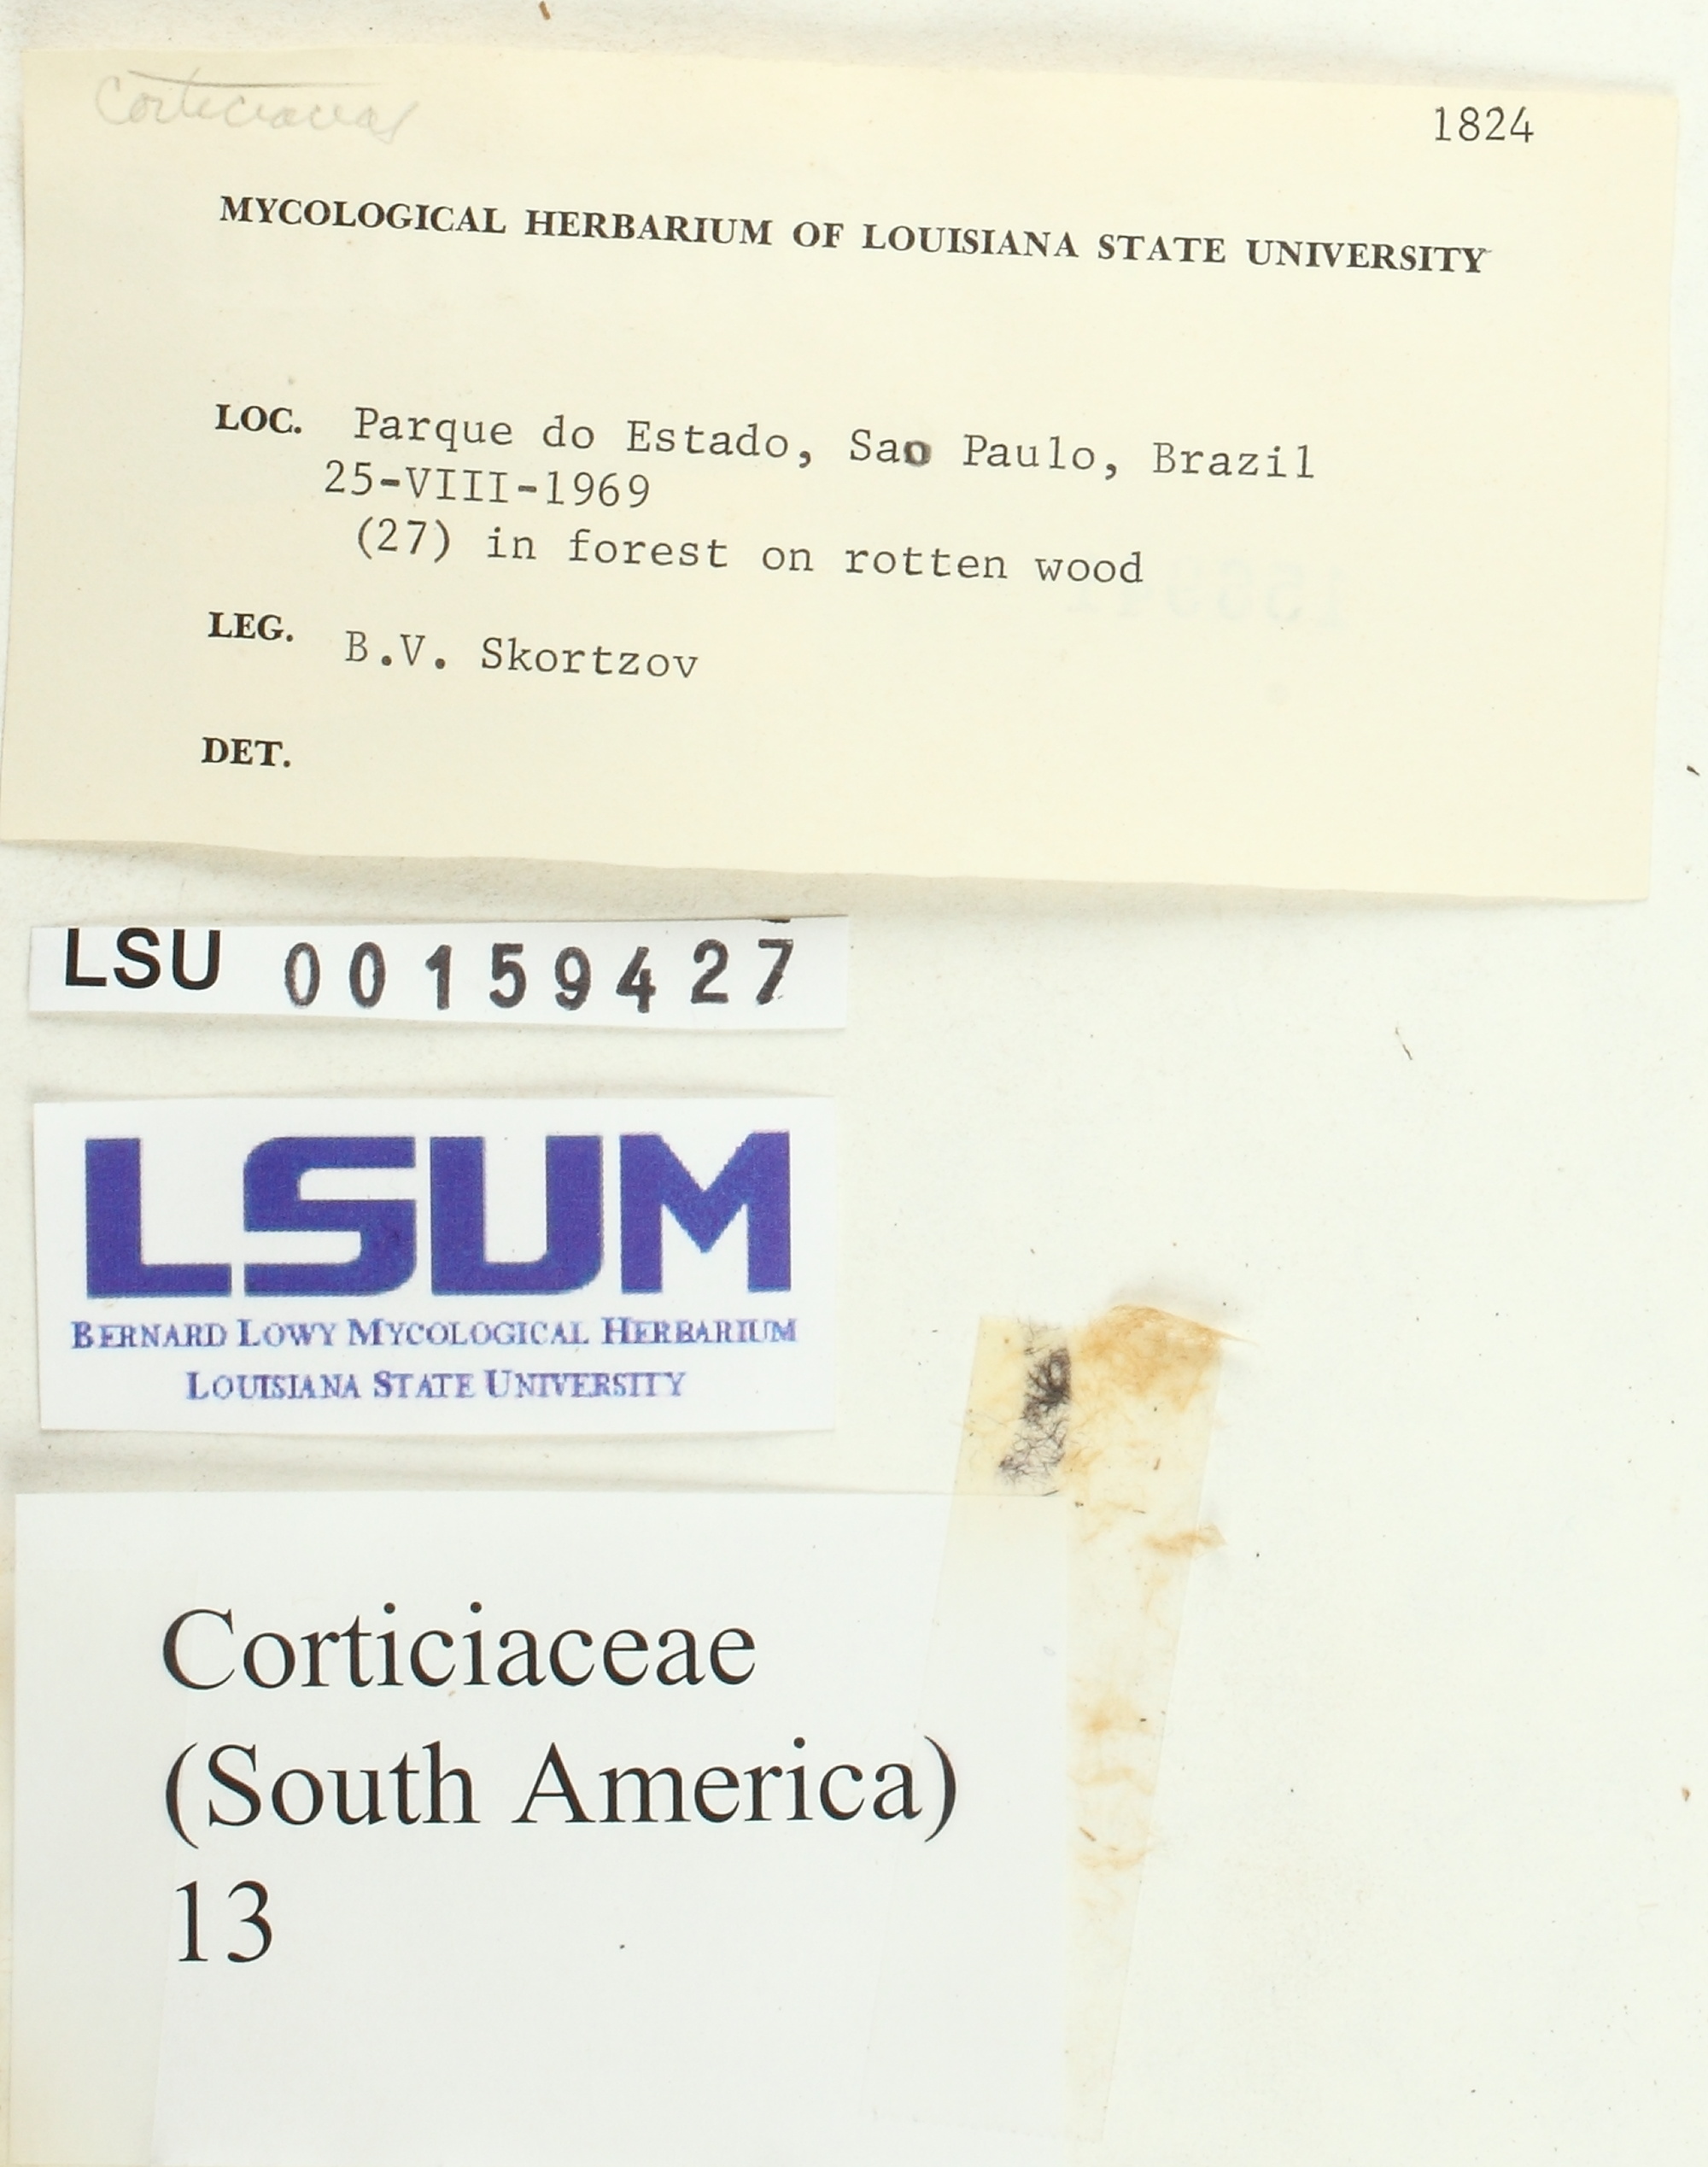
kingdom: Fungi
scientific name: Fungi
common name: Fungi
